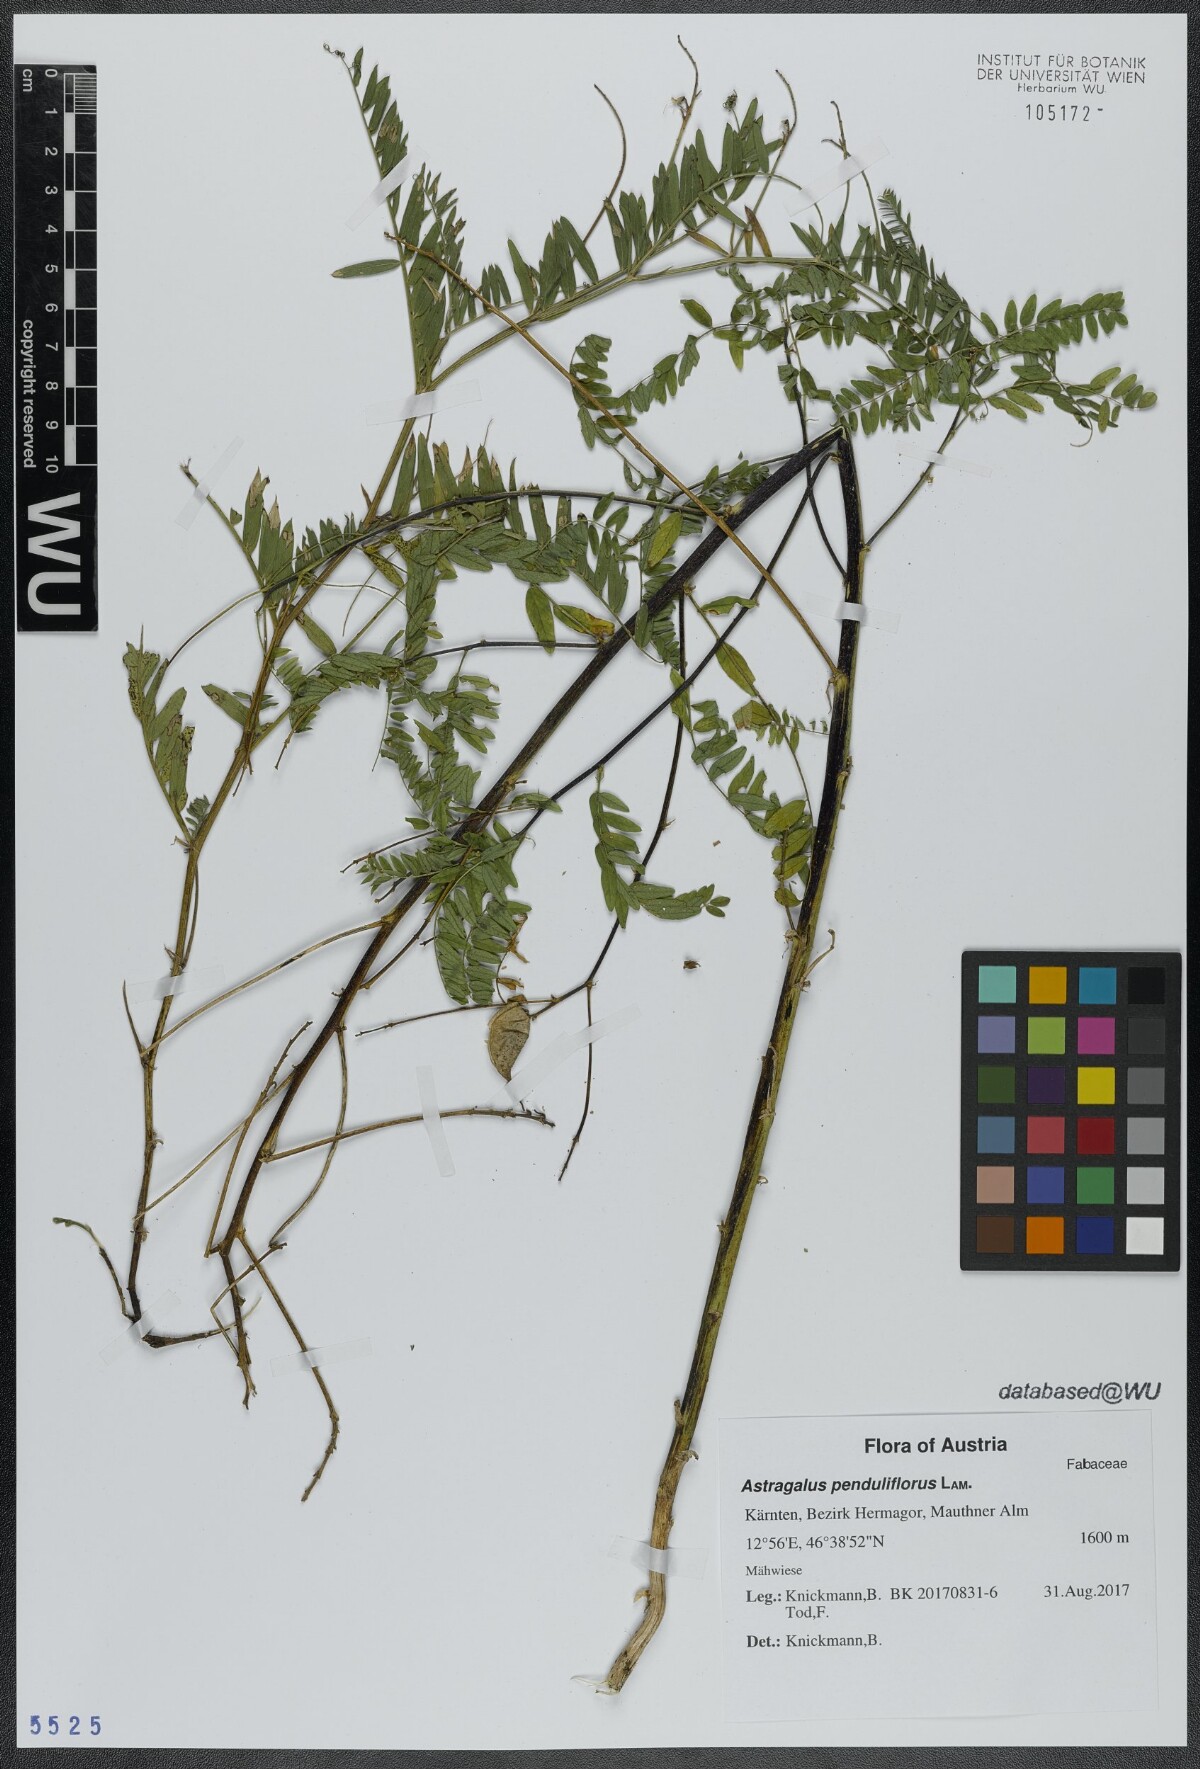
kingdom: Plantae
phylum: Tracheophyta
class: Magnoliopsida
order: Fabales
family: Fabaceae
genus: Astragalus
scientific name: Astragalus penduliflorus
